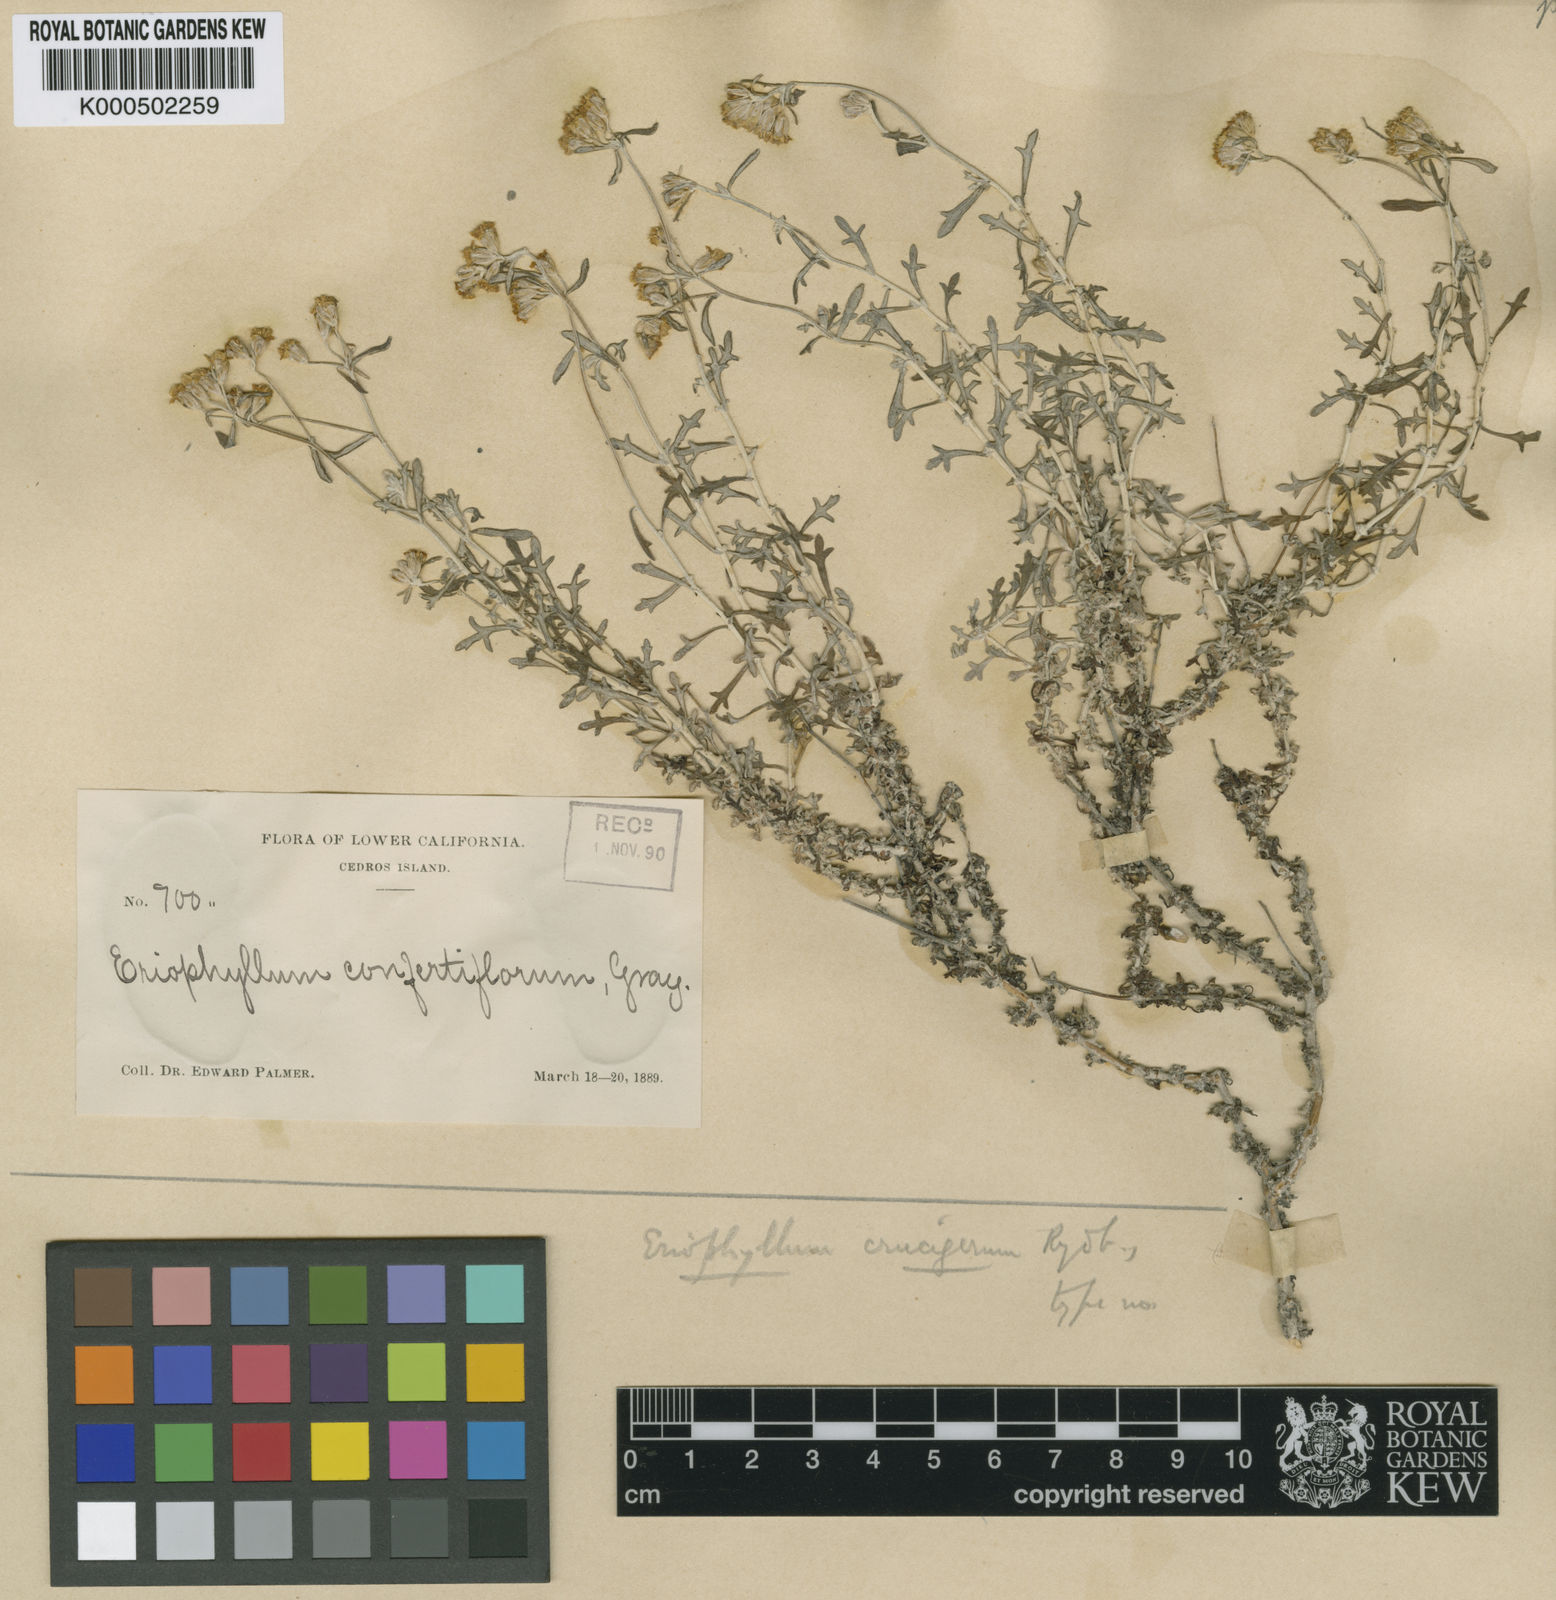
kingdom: Plantae
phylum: Tracheophyta
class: Magnoliopsida
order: Asterales
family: Asteraceae
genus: Eriophyllum
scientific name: Eriophyllum confertiflorum
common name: Golden-yarrow
